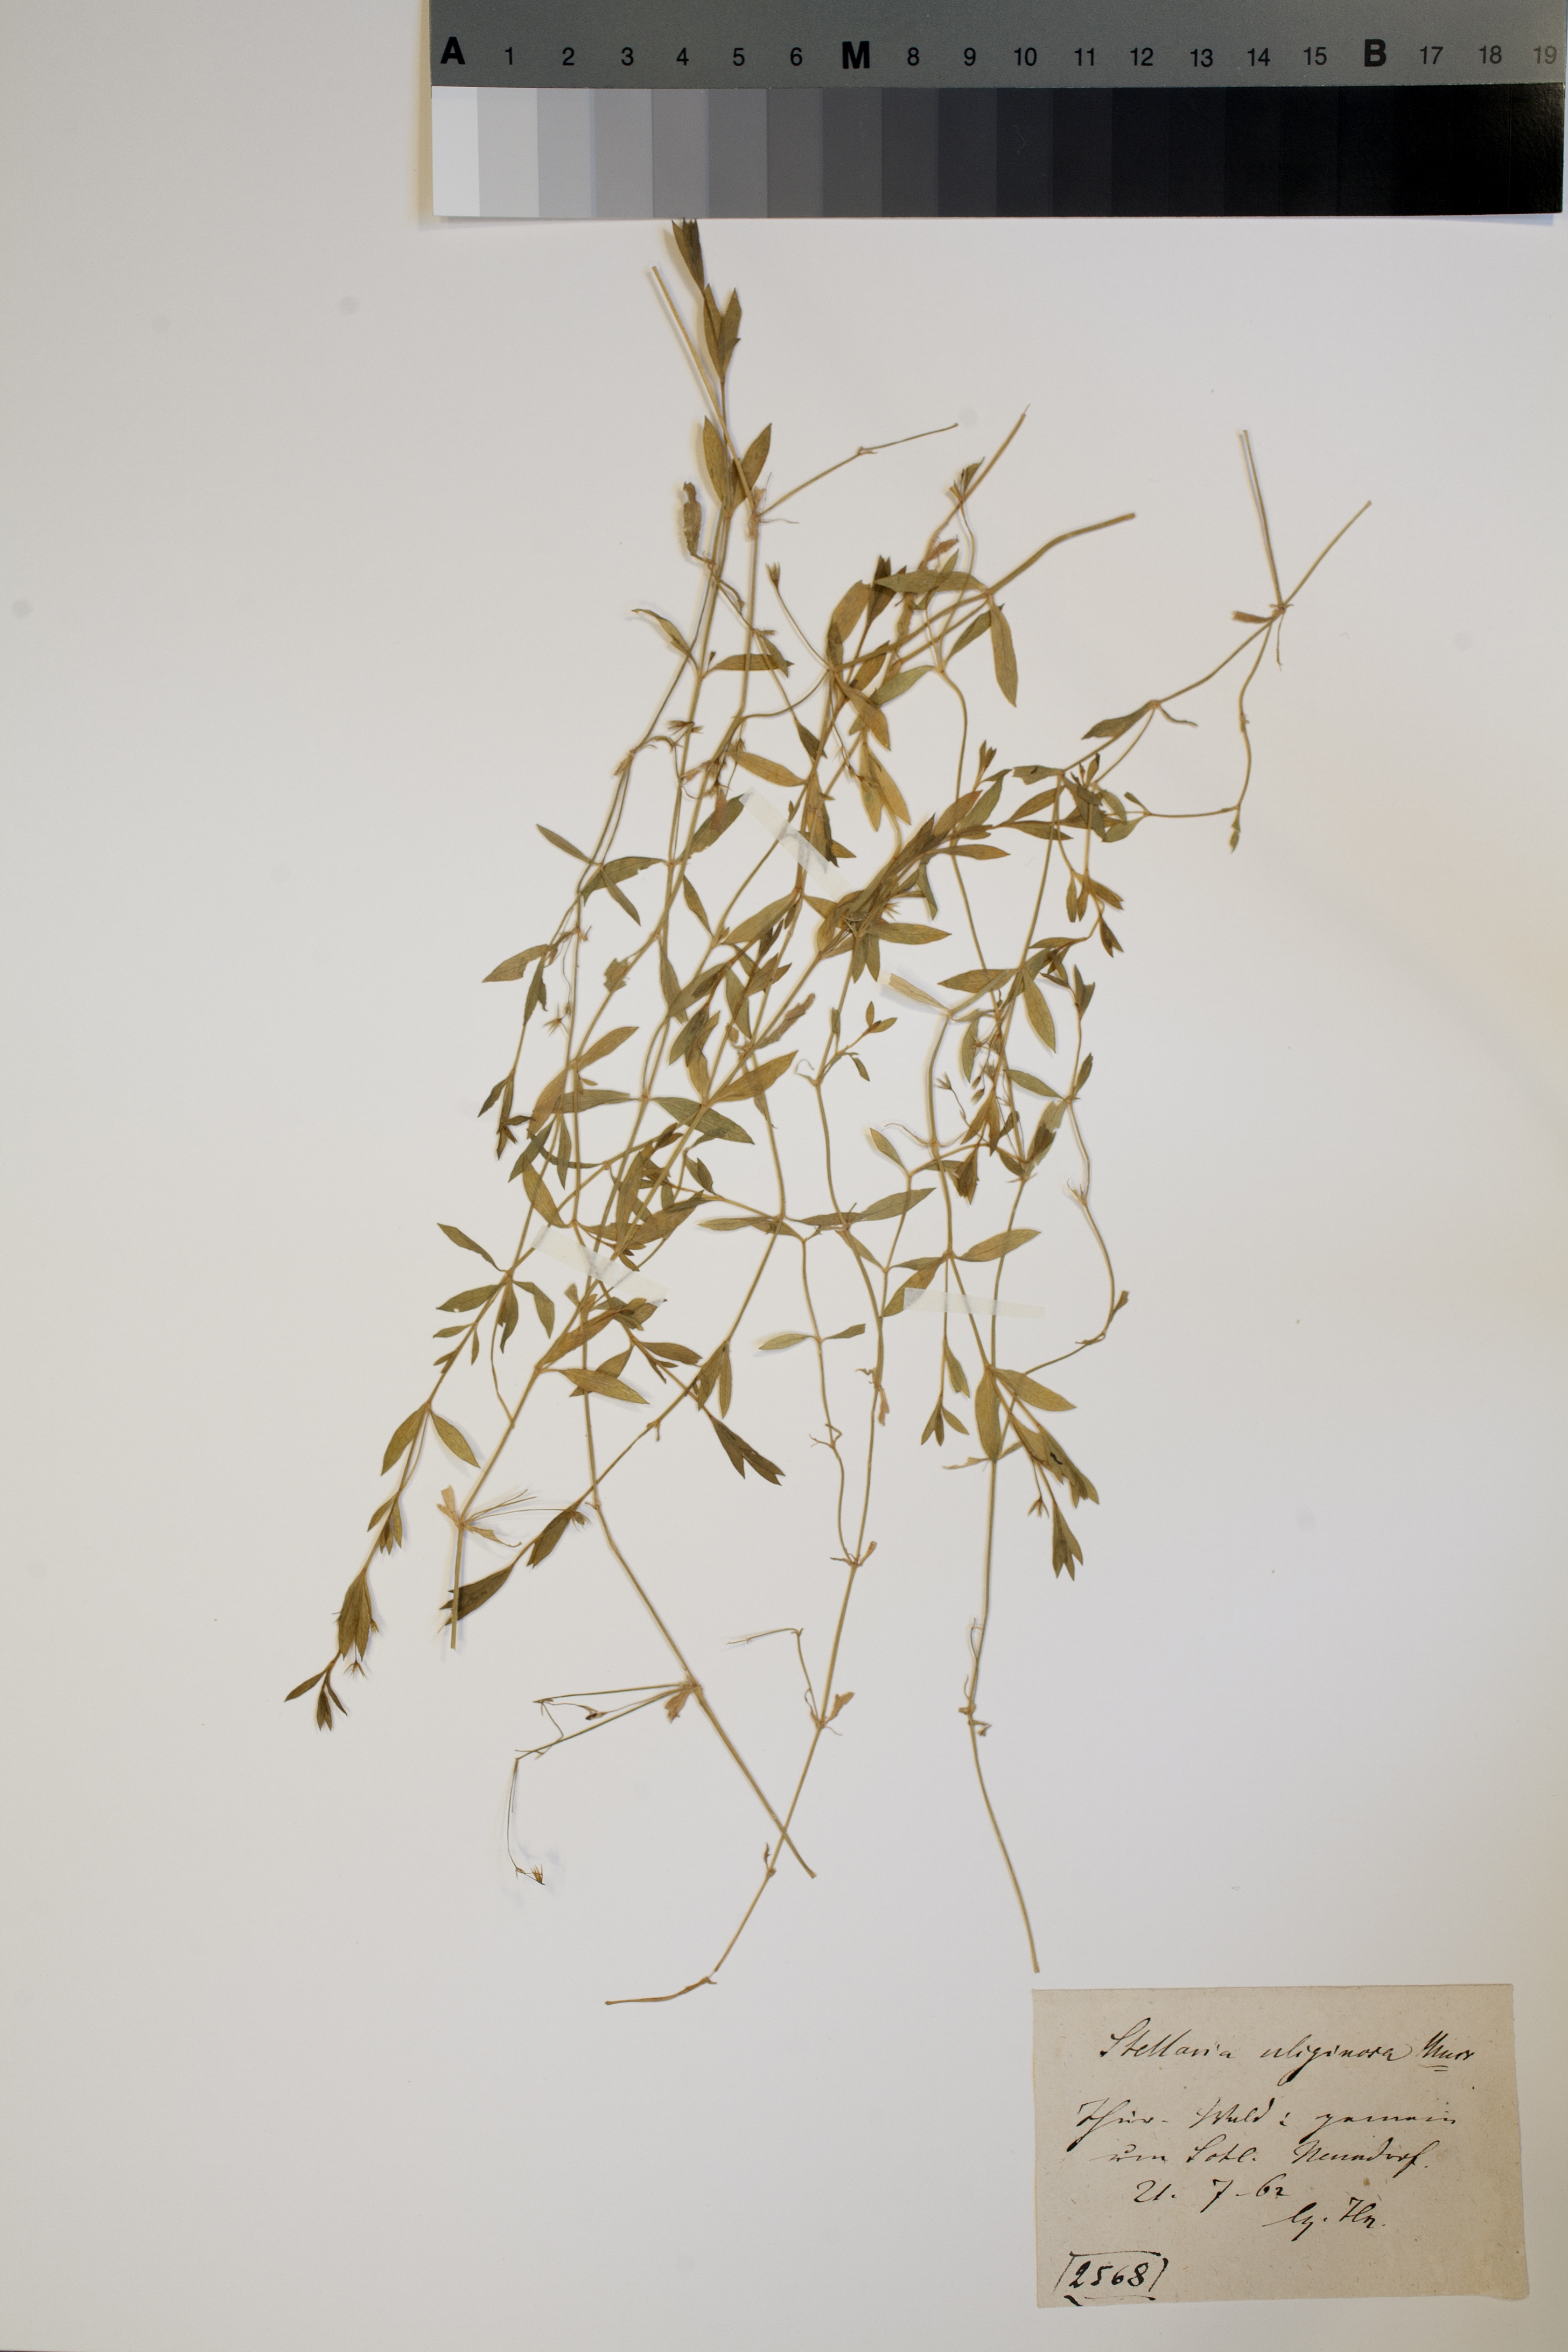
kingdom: Plantae
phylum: Tracheophyta
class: Magnoliopsida
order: Caryophyllales
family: Caryophyllaceae
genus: Stellaria
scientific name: Stellaria alsine
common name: Bog stitchwort
